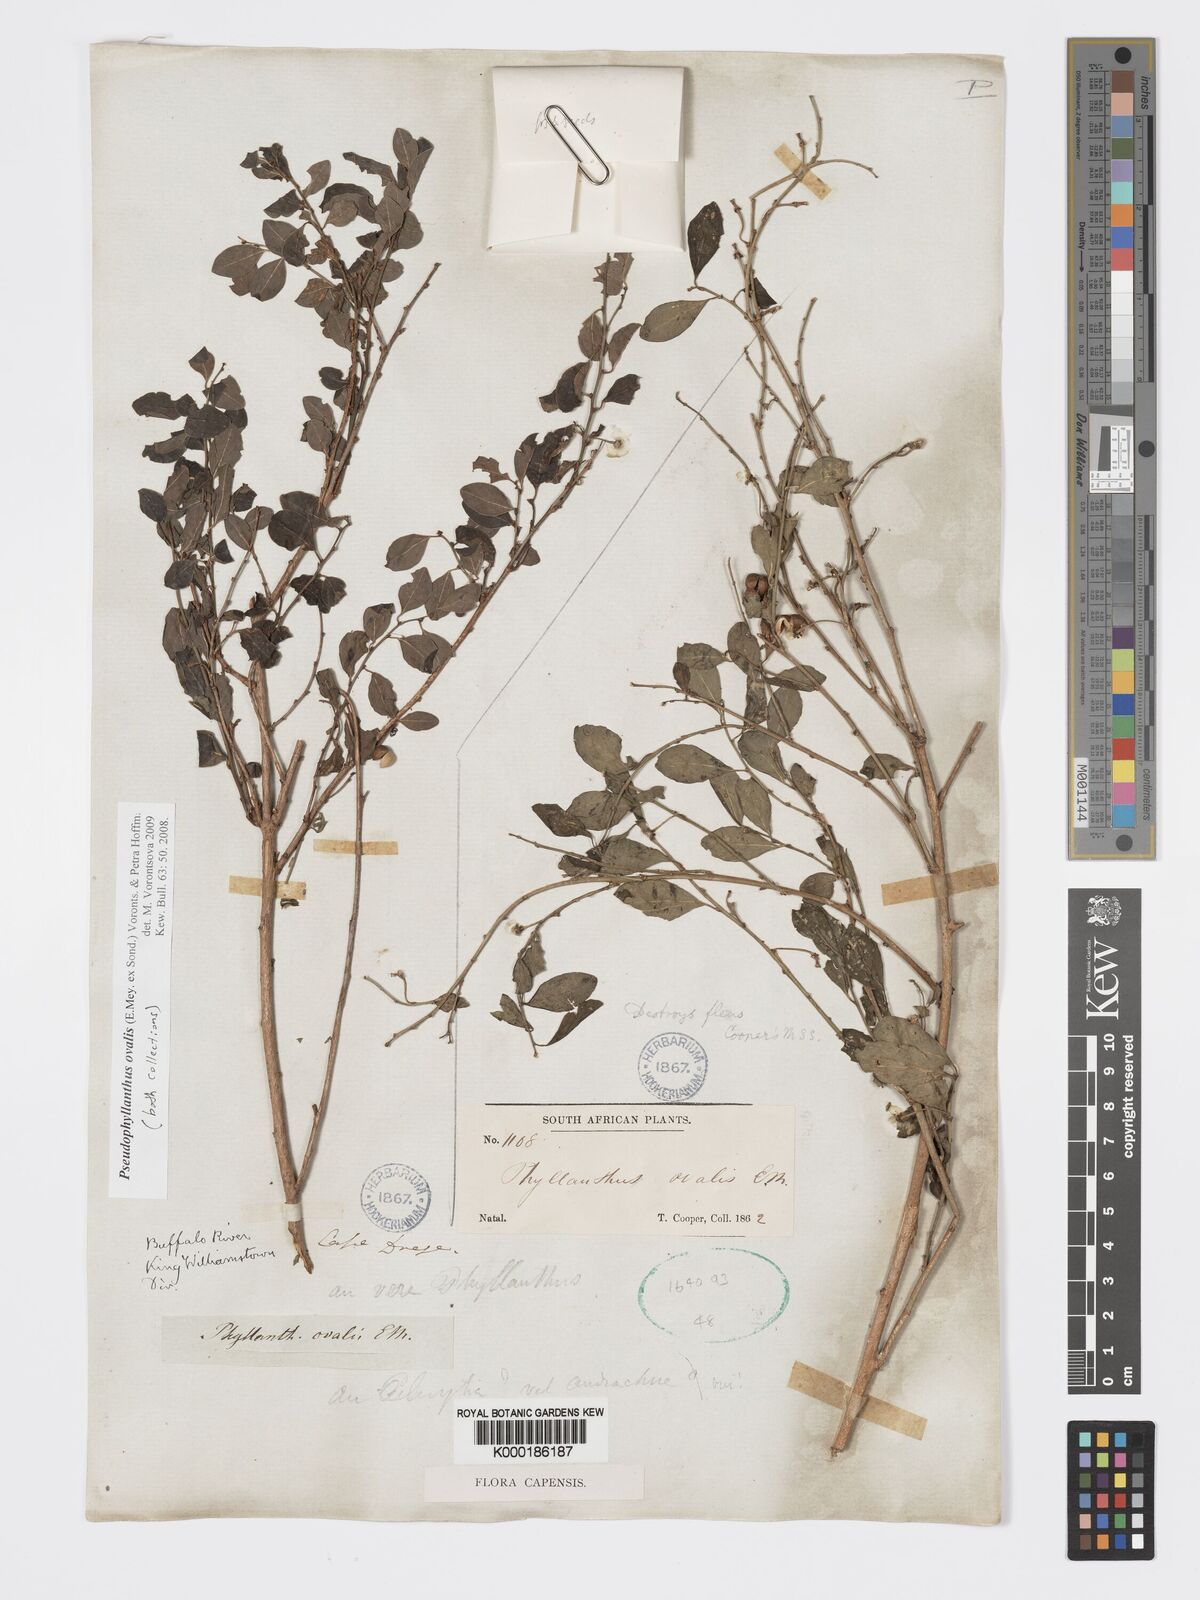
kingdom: Plantae
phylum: Tracheophyta
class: Magnoliopsida
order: Malpighiales
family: Phyllanthaceae
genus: Pseudophyllanthus
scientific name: Pseudophyllanthus ovalis
